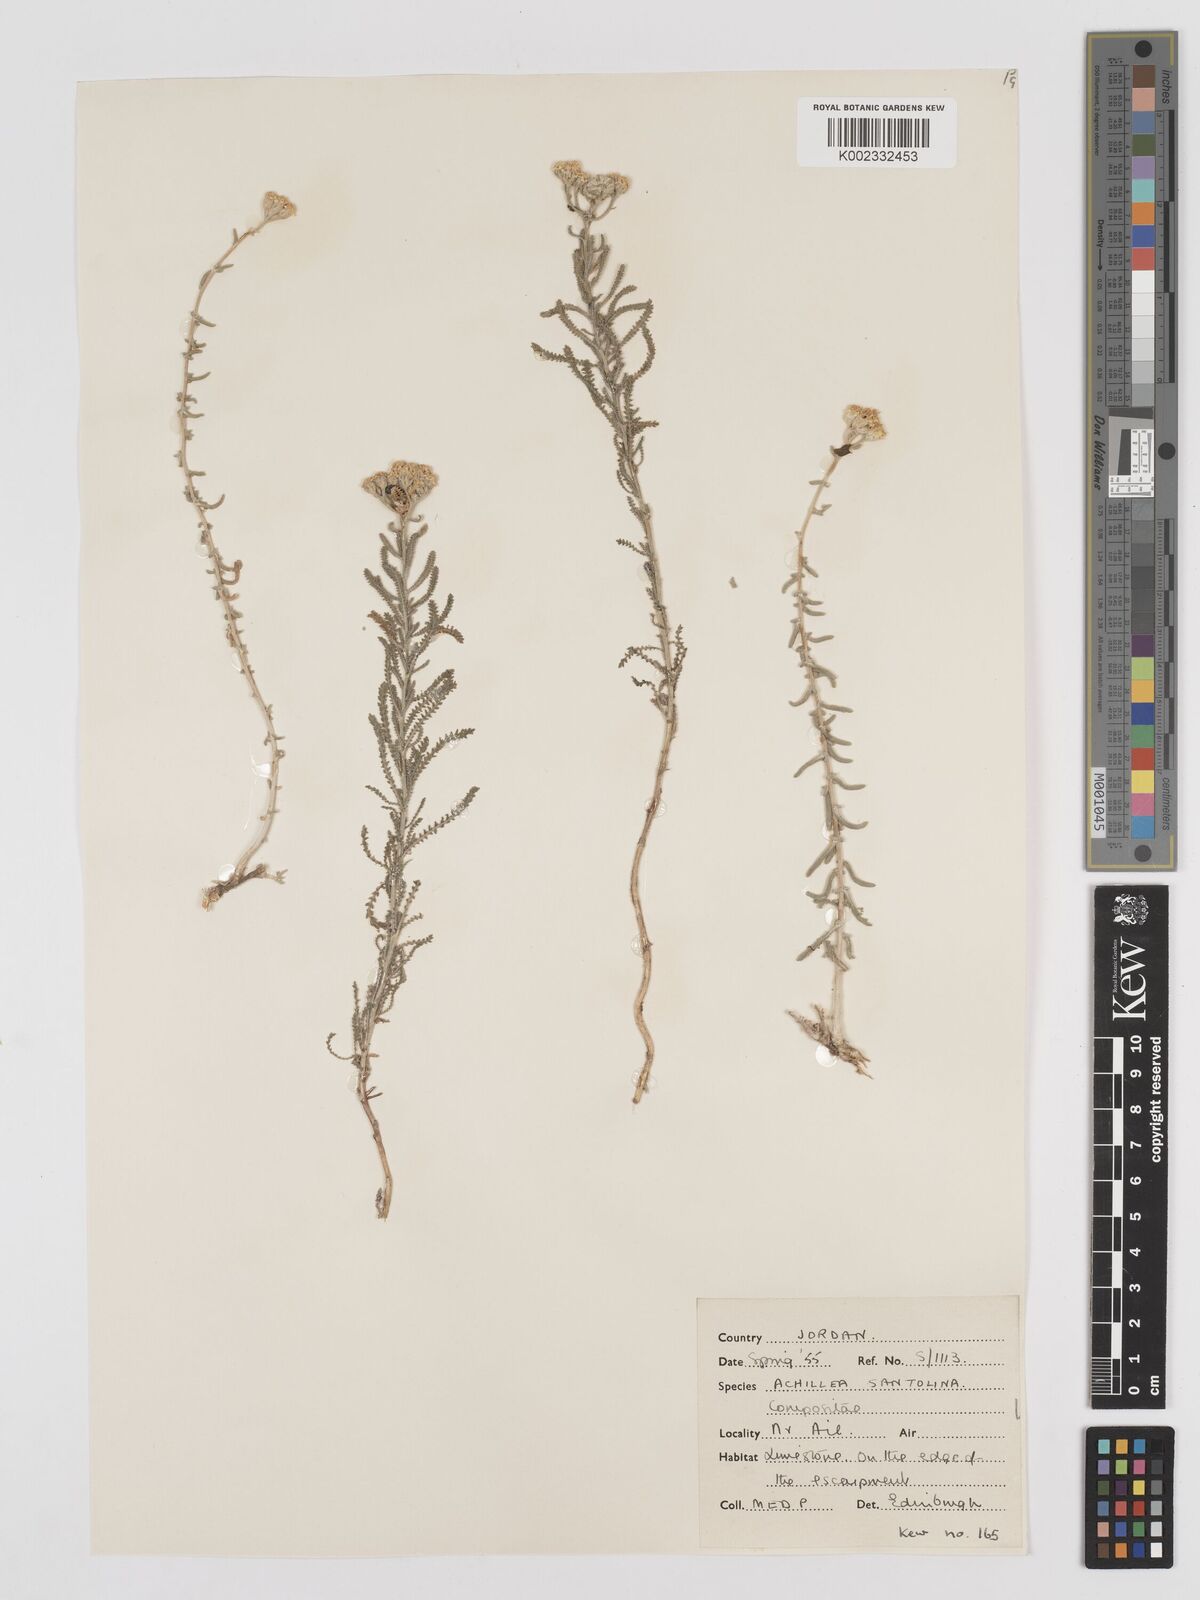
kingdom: Plantae
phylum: Tracheophyta
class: Magnoliopsida
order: Asterales
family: Asteraceae
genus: Achillea
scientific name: Achillea tenuifolia
